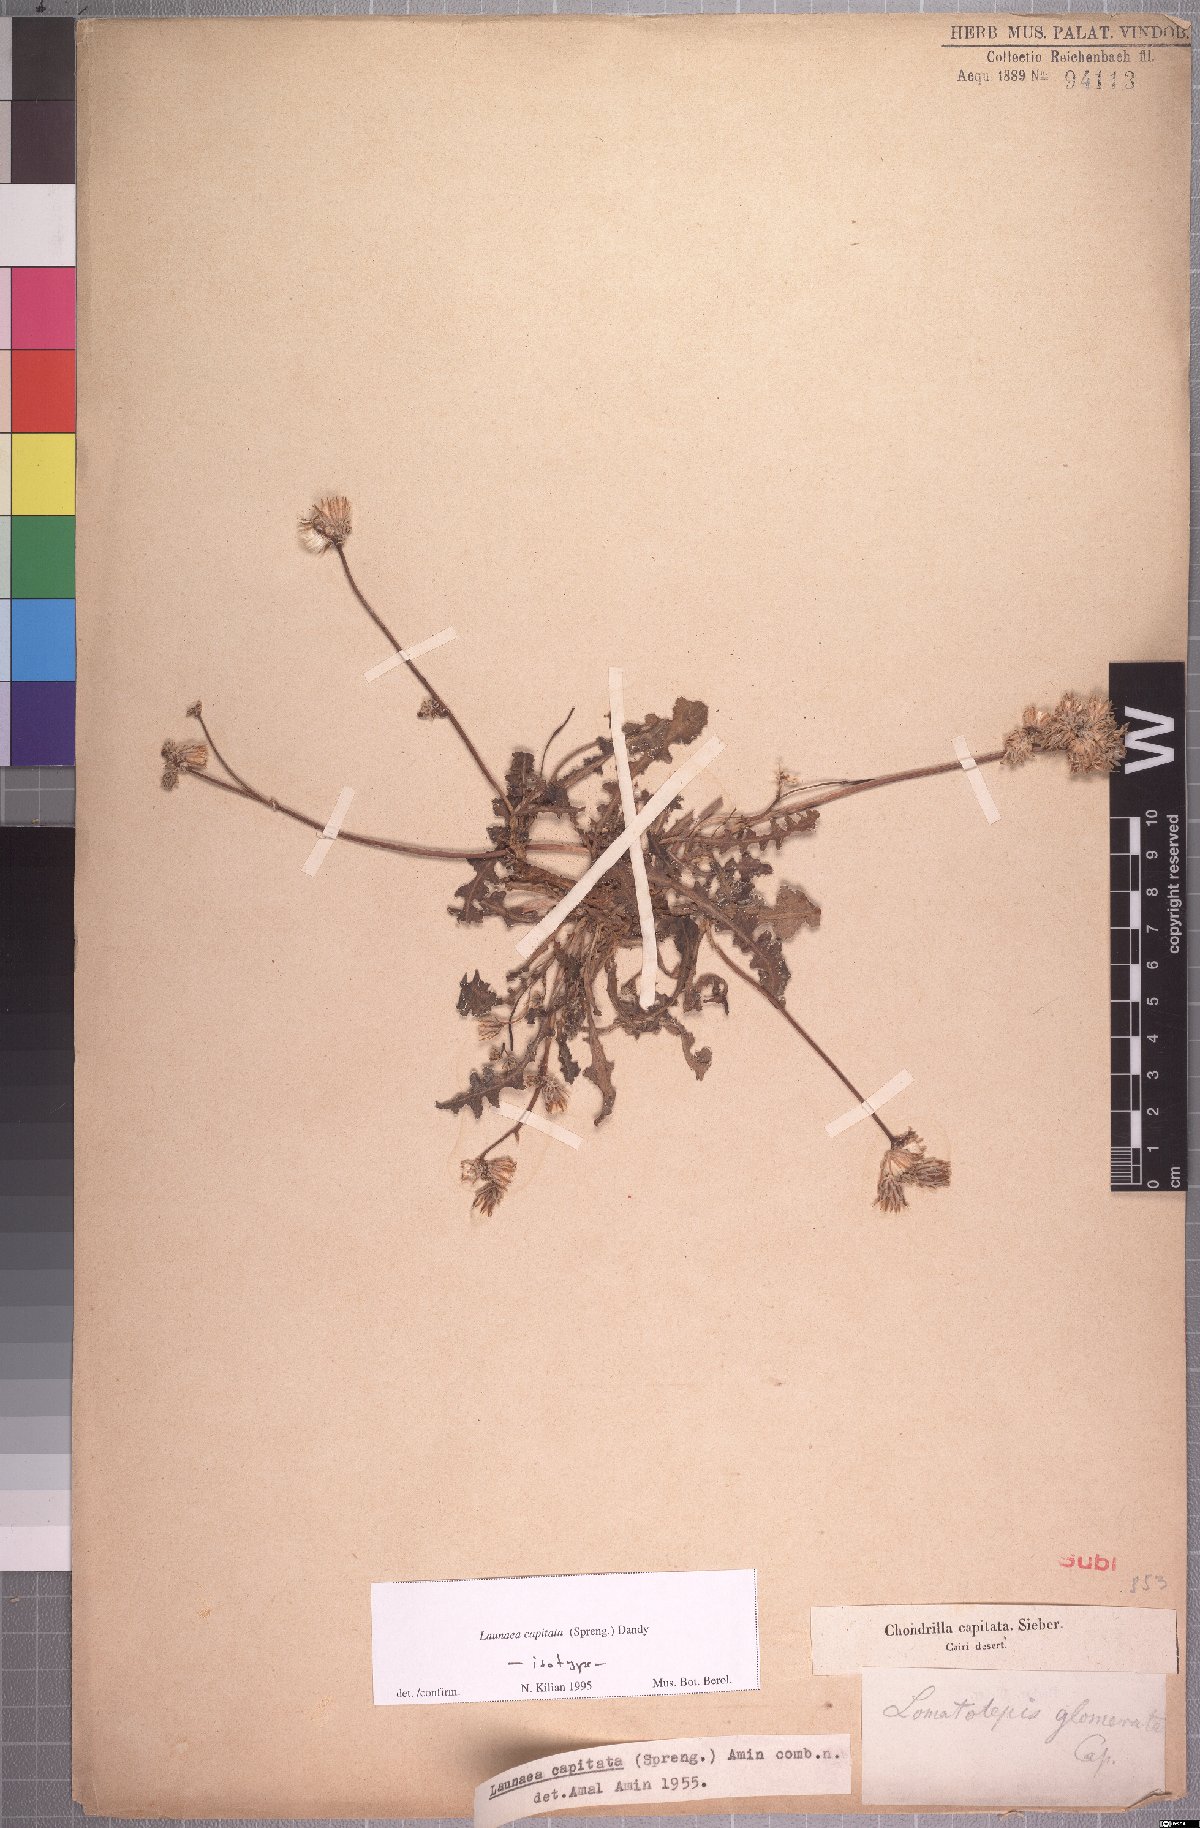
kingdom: Plantae
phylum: Tracheophyta
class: Magnoliopsida
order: Asterales
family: Asteraceae
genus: Launaea
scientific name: Launaea capitata
